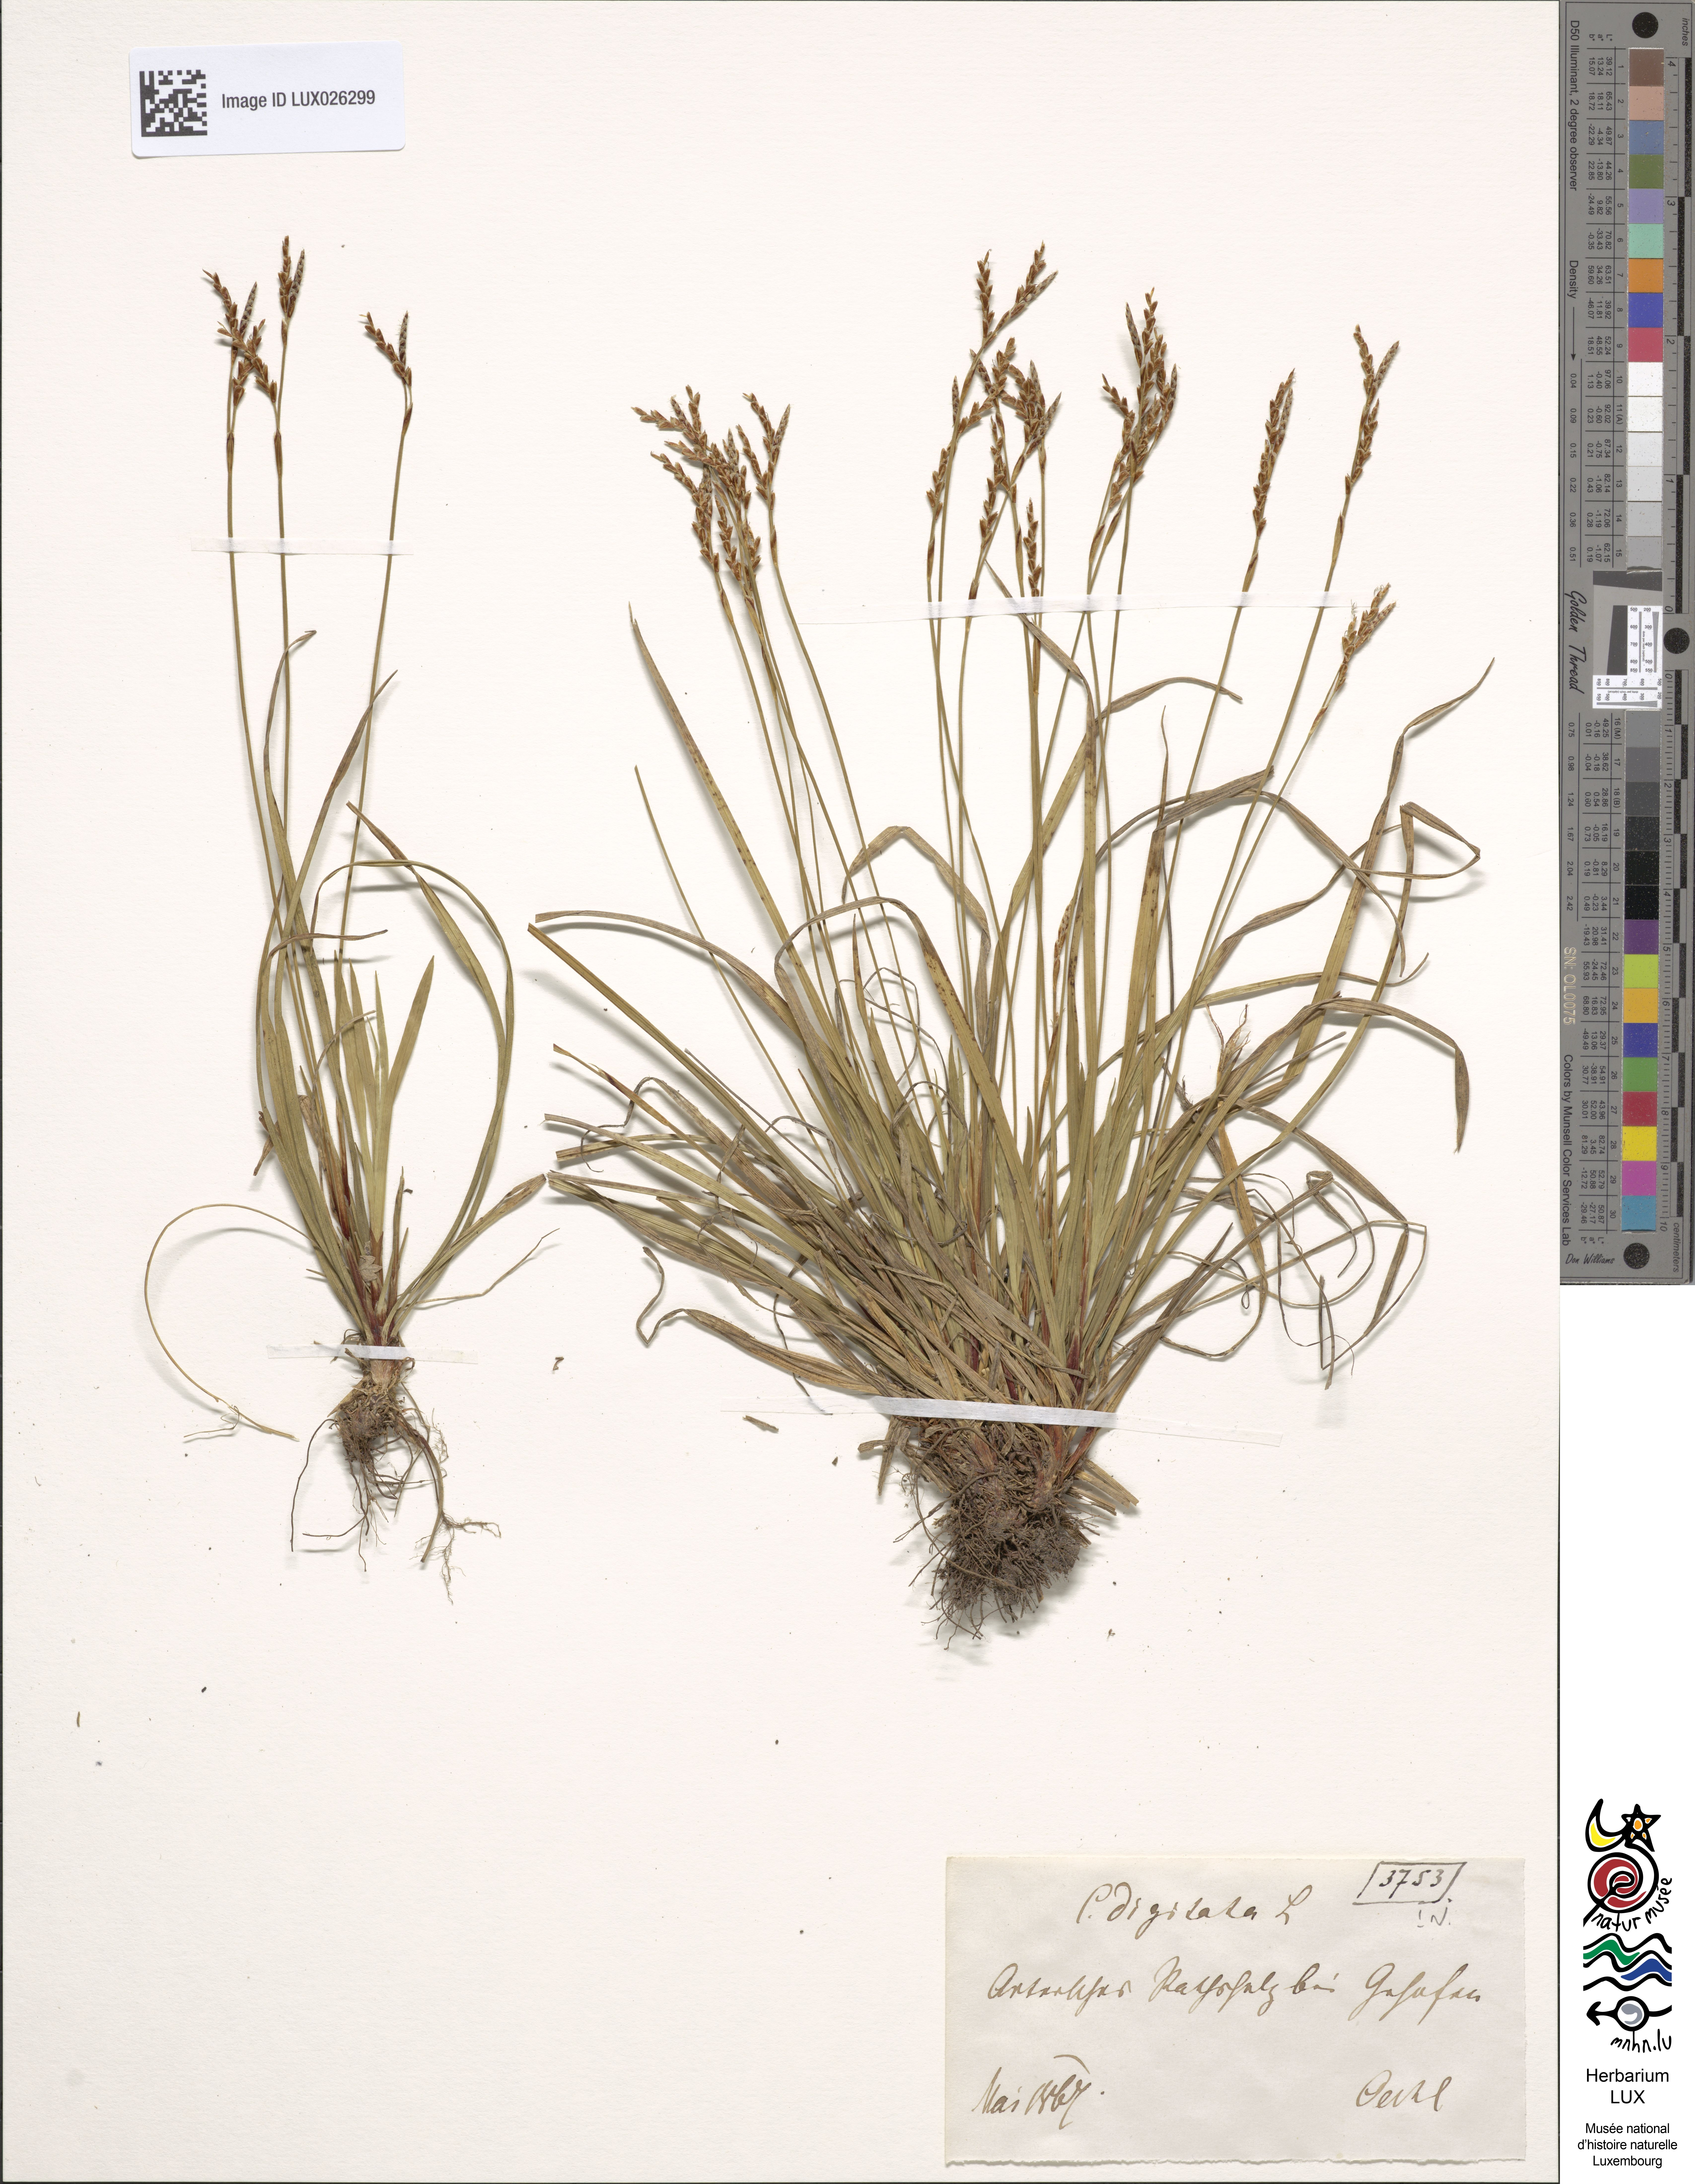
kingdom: Plantae
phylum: Tracheophyta
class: Liliopsida
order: Poales
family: Cyperaceae
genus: Carex
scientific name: Carex digitata
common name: Fingered sedge
